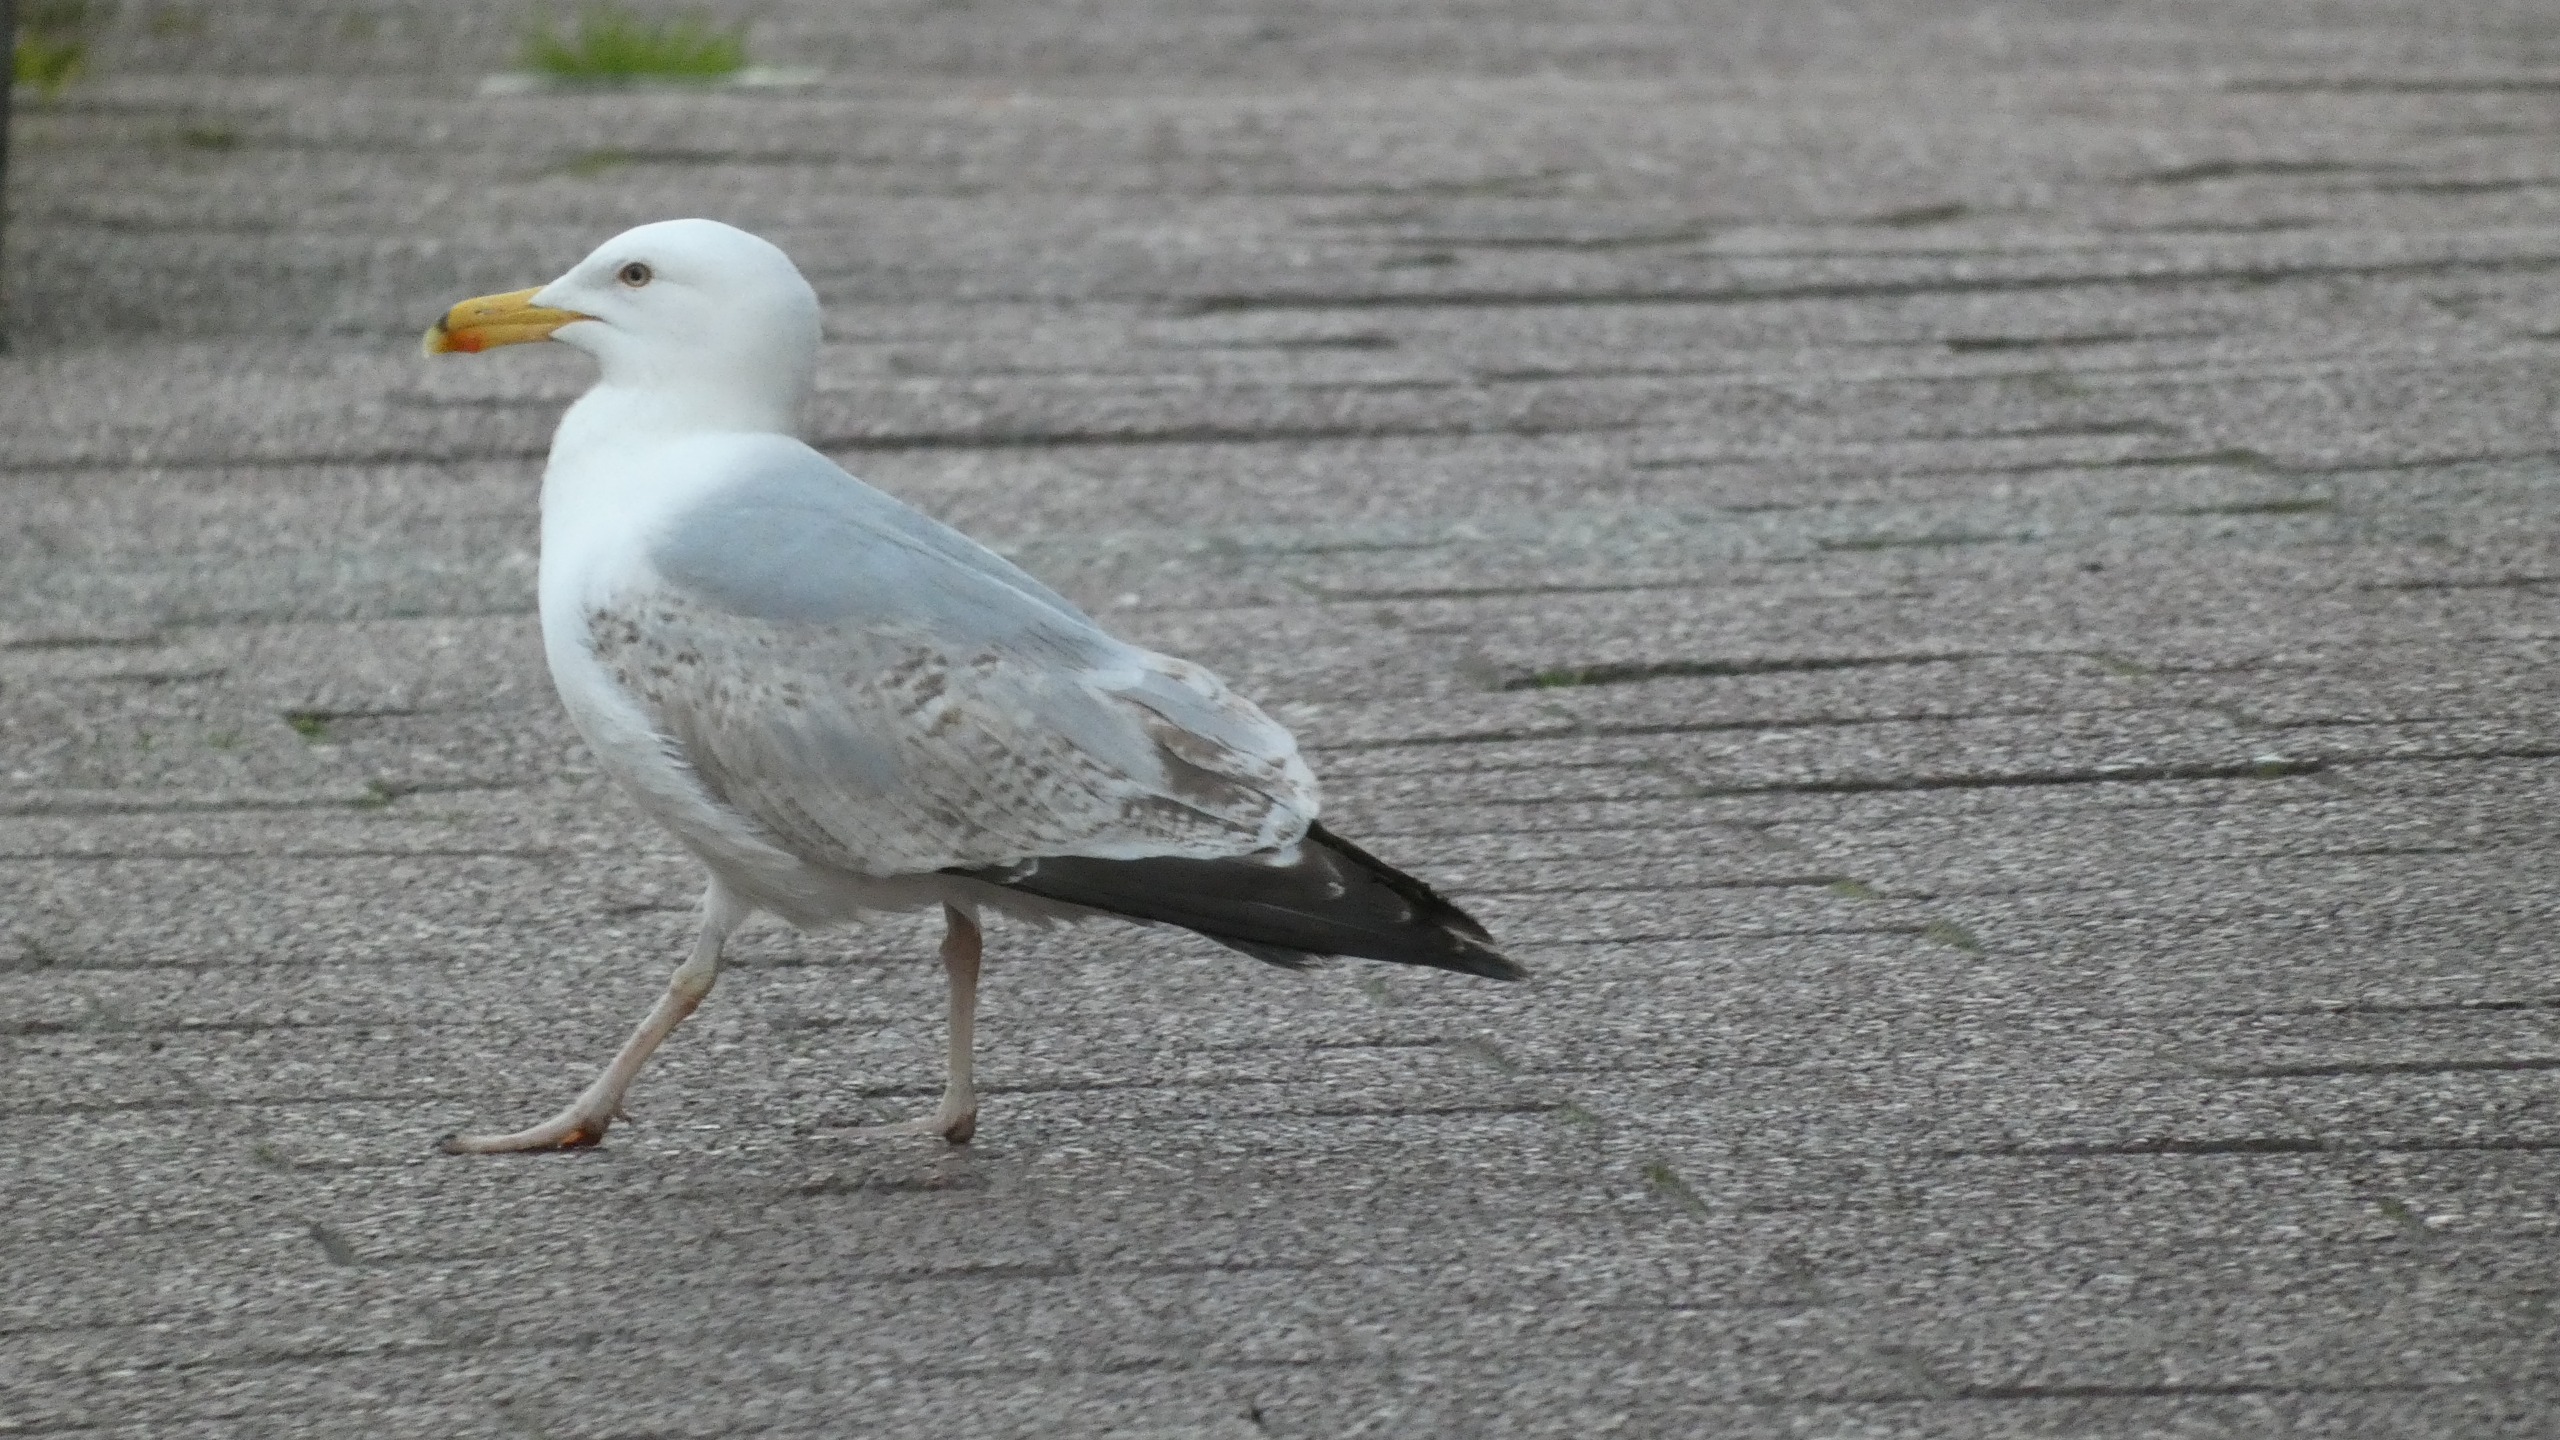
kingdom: Animalia
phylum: Chordata
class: Aves
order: Charadriiformes
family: Laridae
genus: Larus
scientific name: Larus argentatus
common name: Sølvmåge
